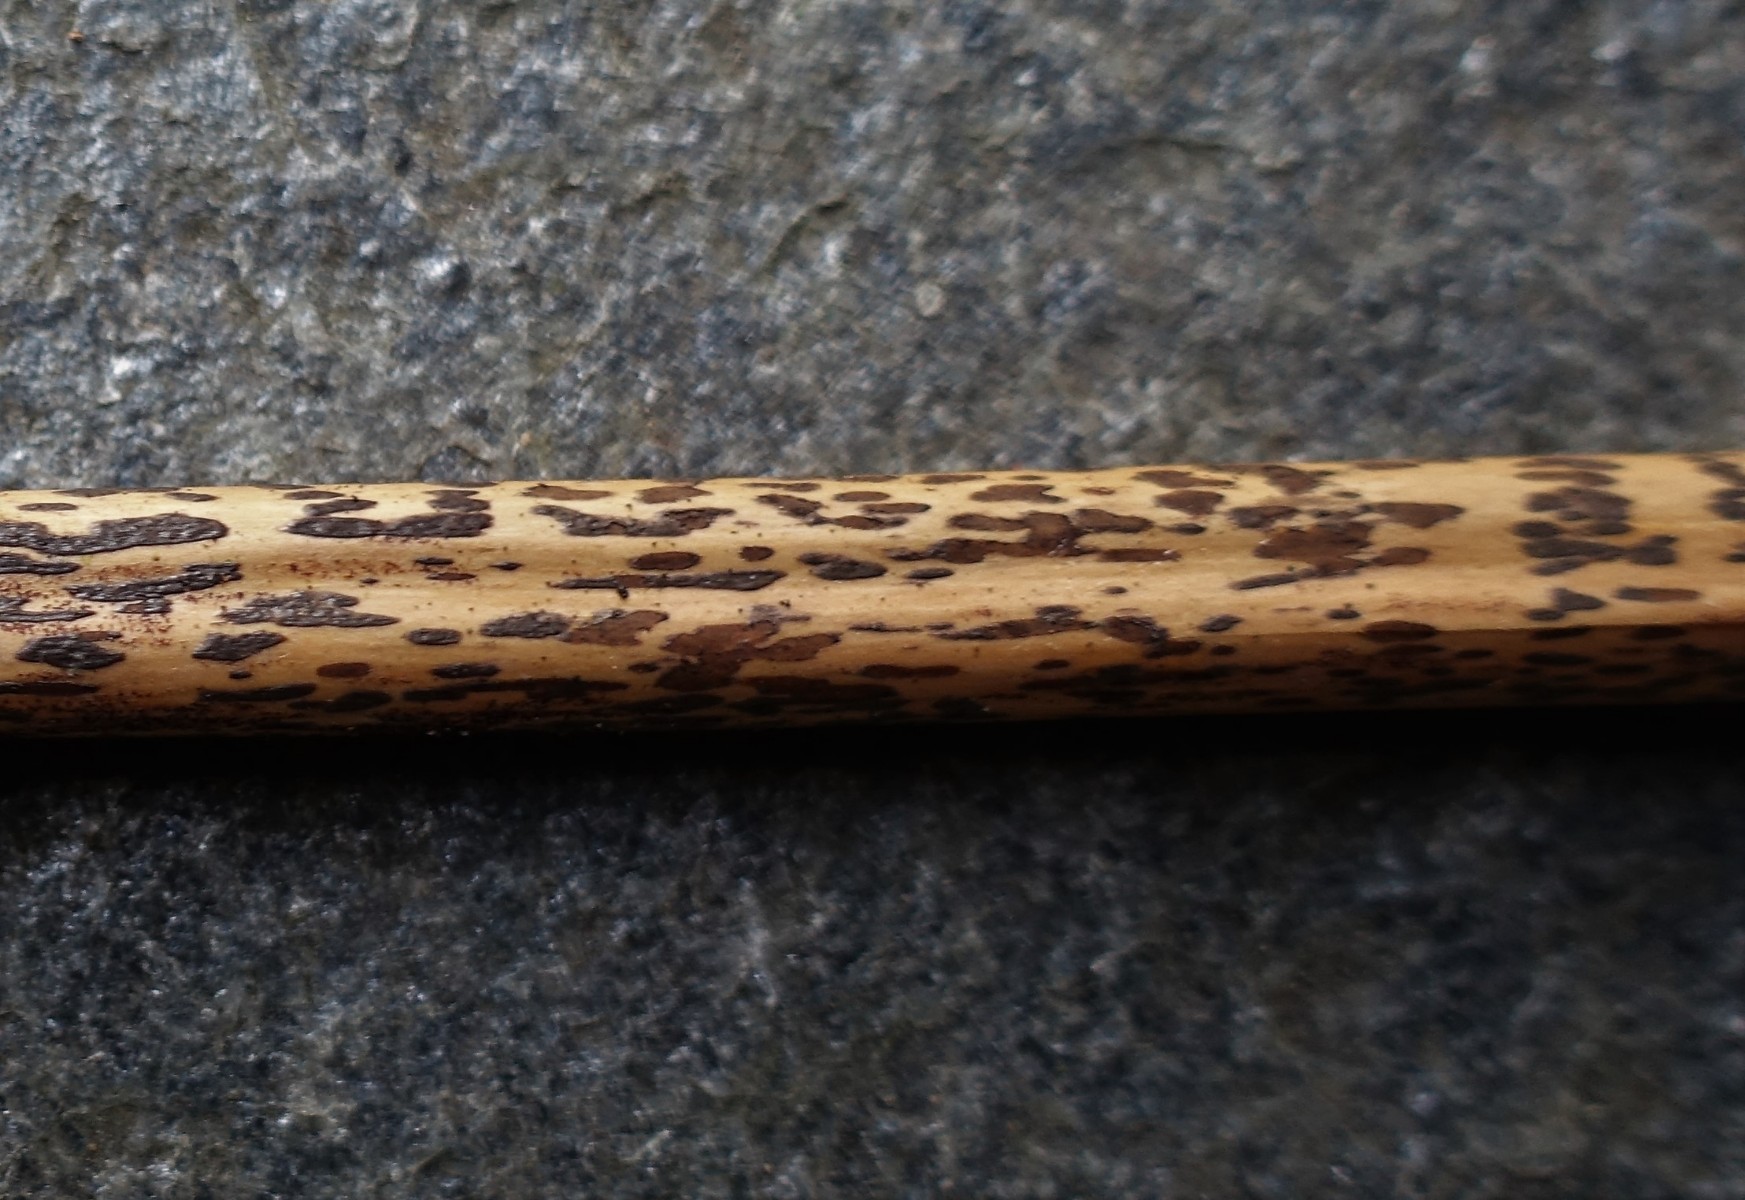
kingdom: Fungi
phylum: Ascomycota
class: Dothideomycetes
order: Pleosporales
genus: Rhopographus
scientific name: Rhopographus filicinus
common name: Bracken map
